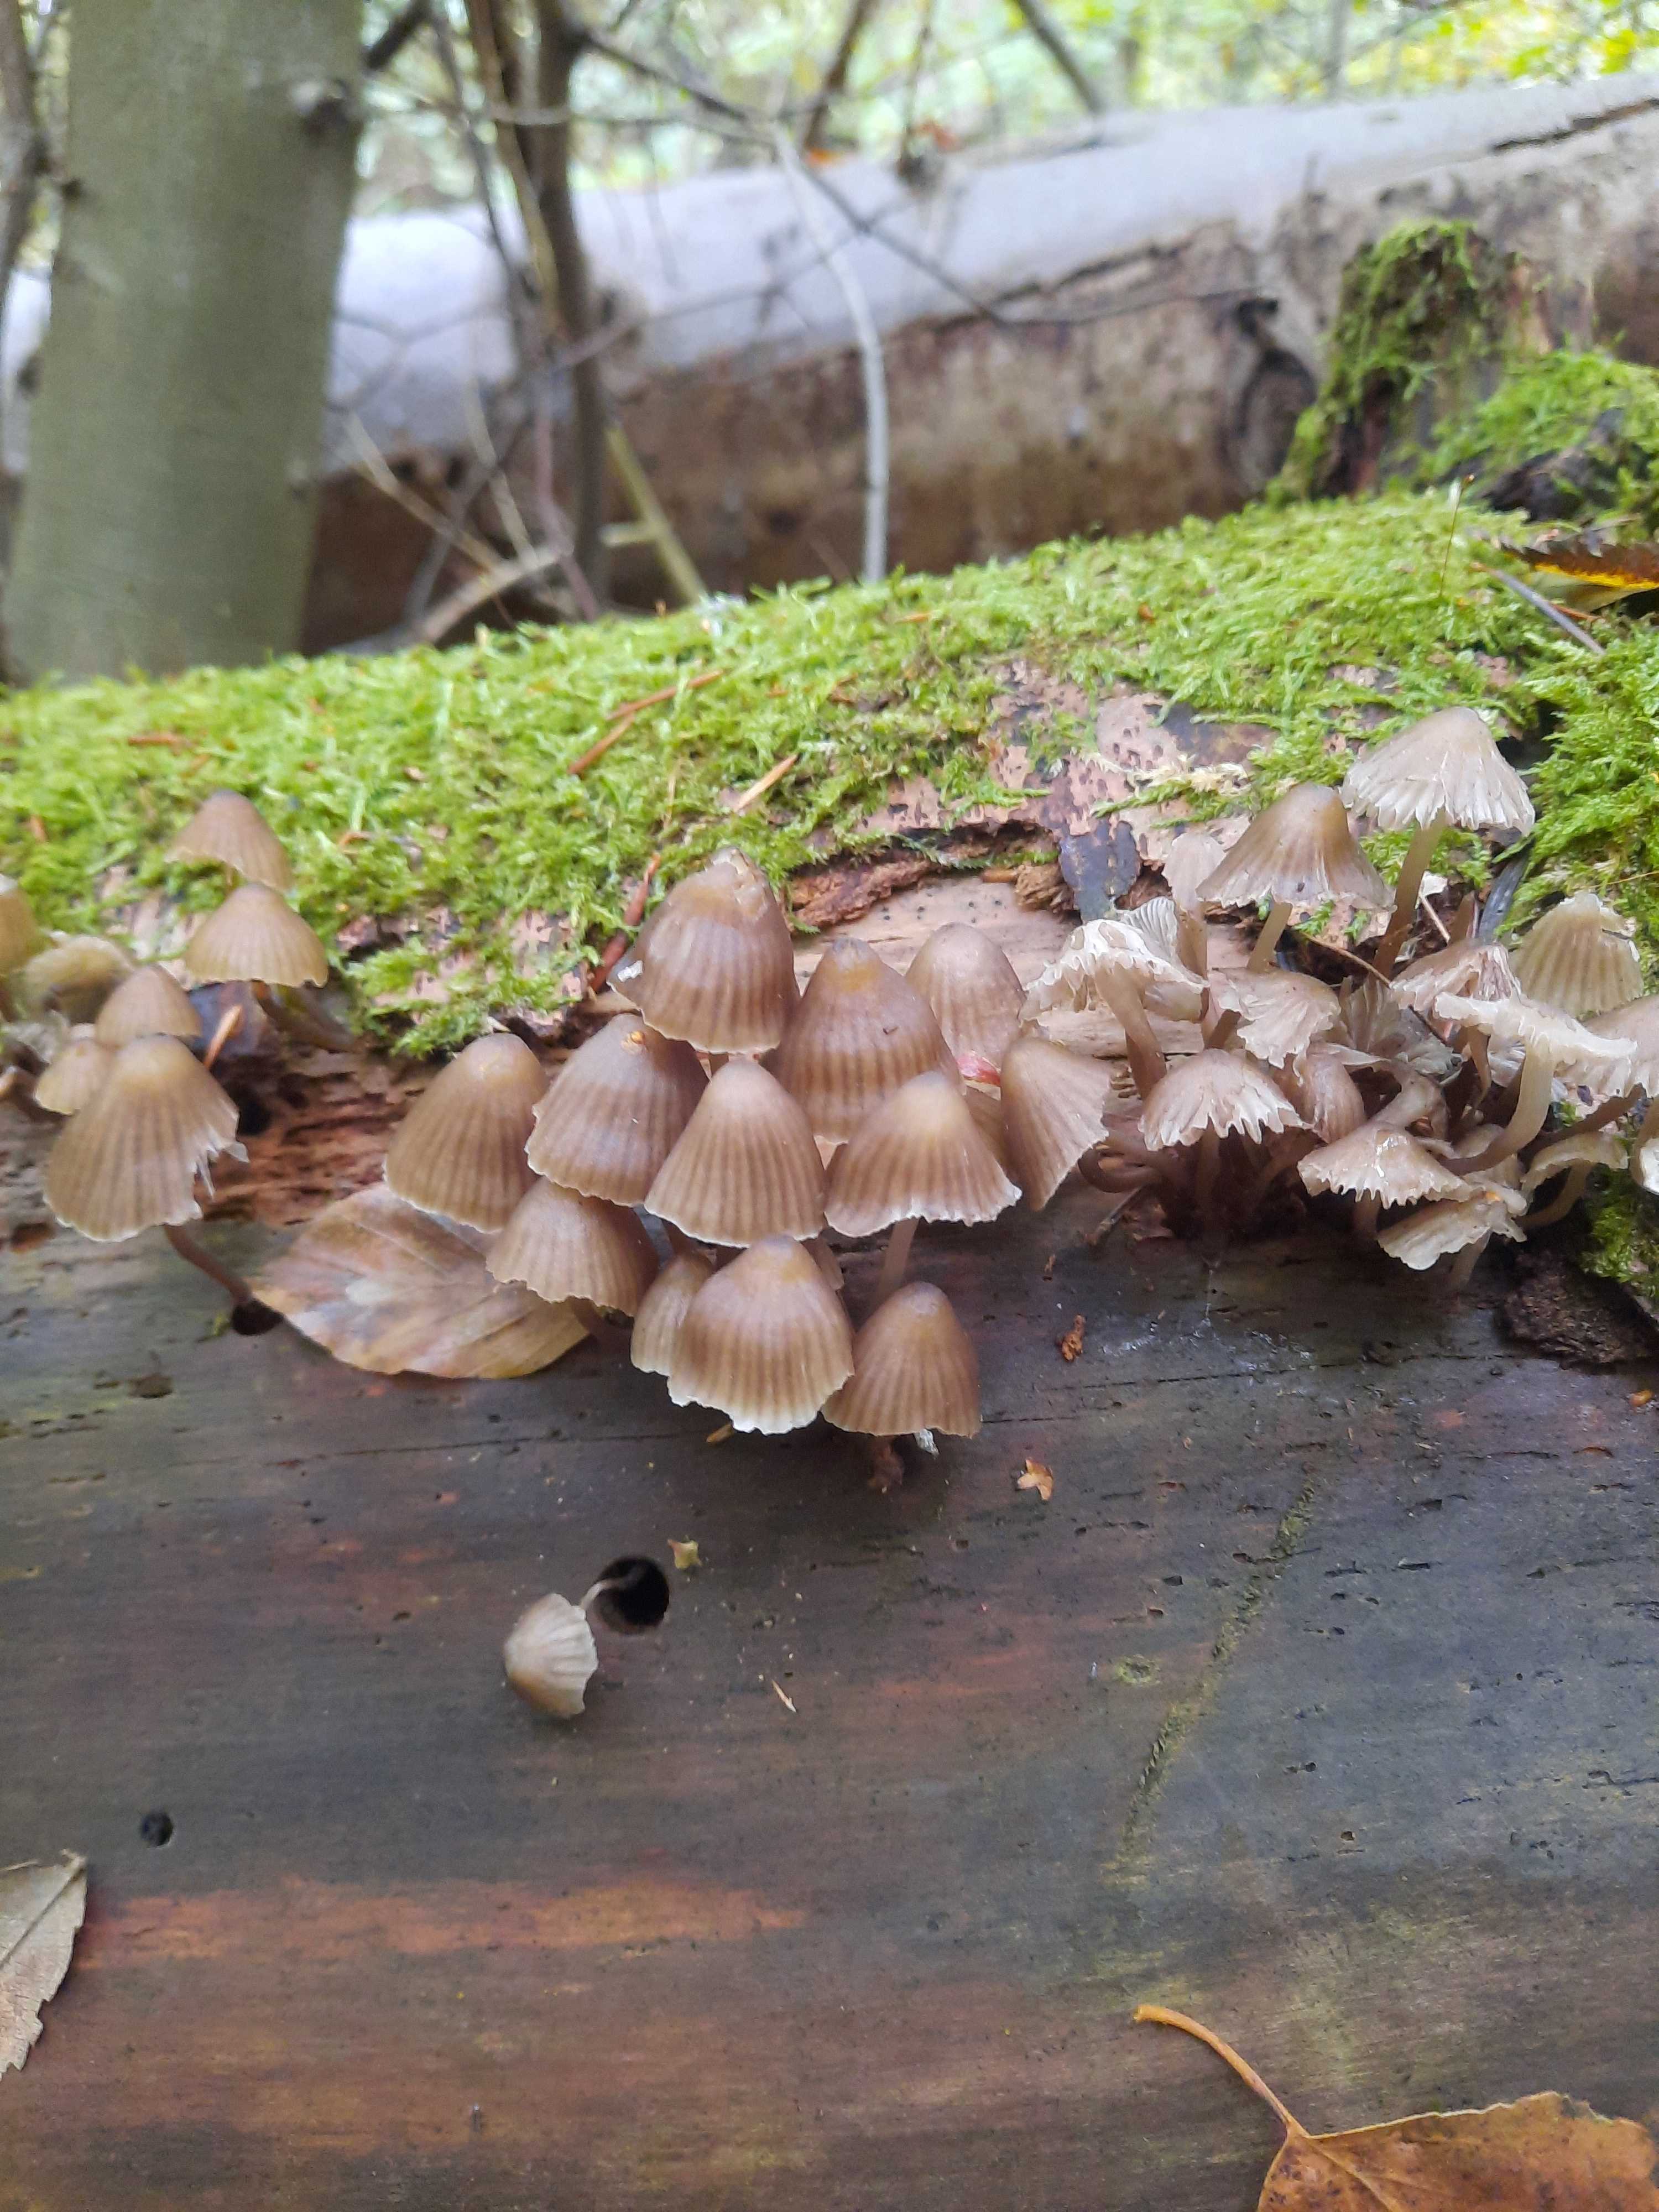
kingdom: Fungi
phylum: Basidiomycota
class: Agaricomycetes
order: Agaricales
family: Mycenaceae
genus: Mycena
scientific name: Mycena stipata
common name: stinkende huesvamp
